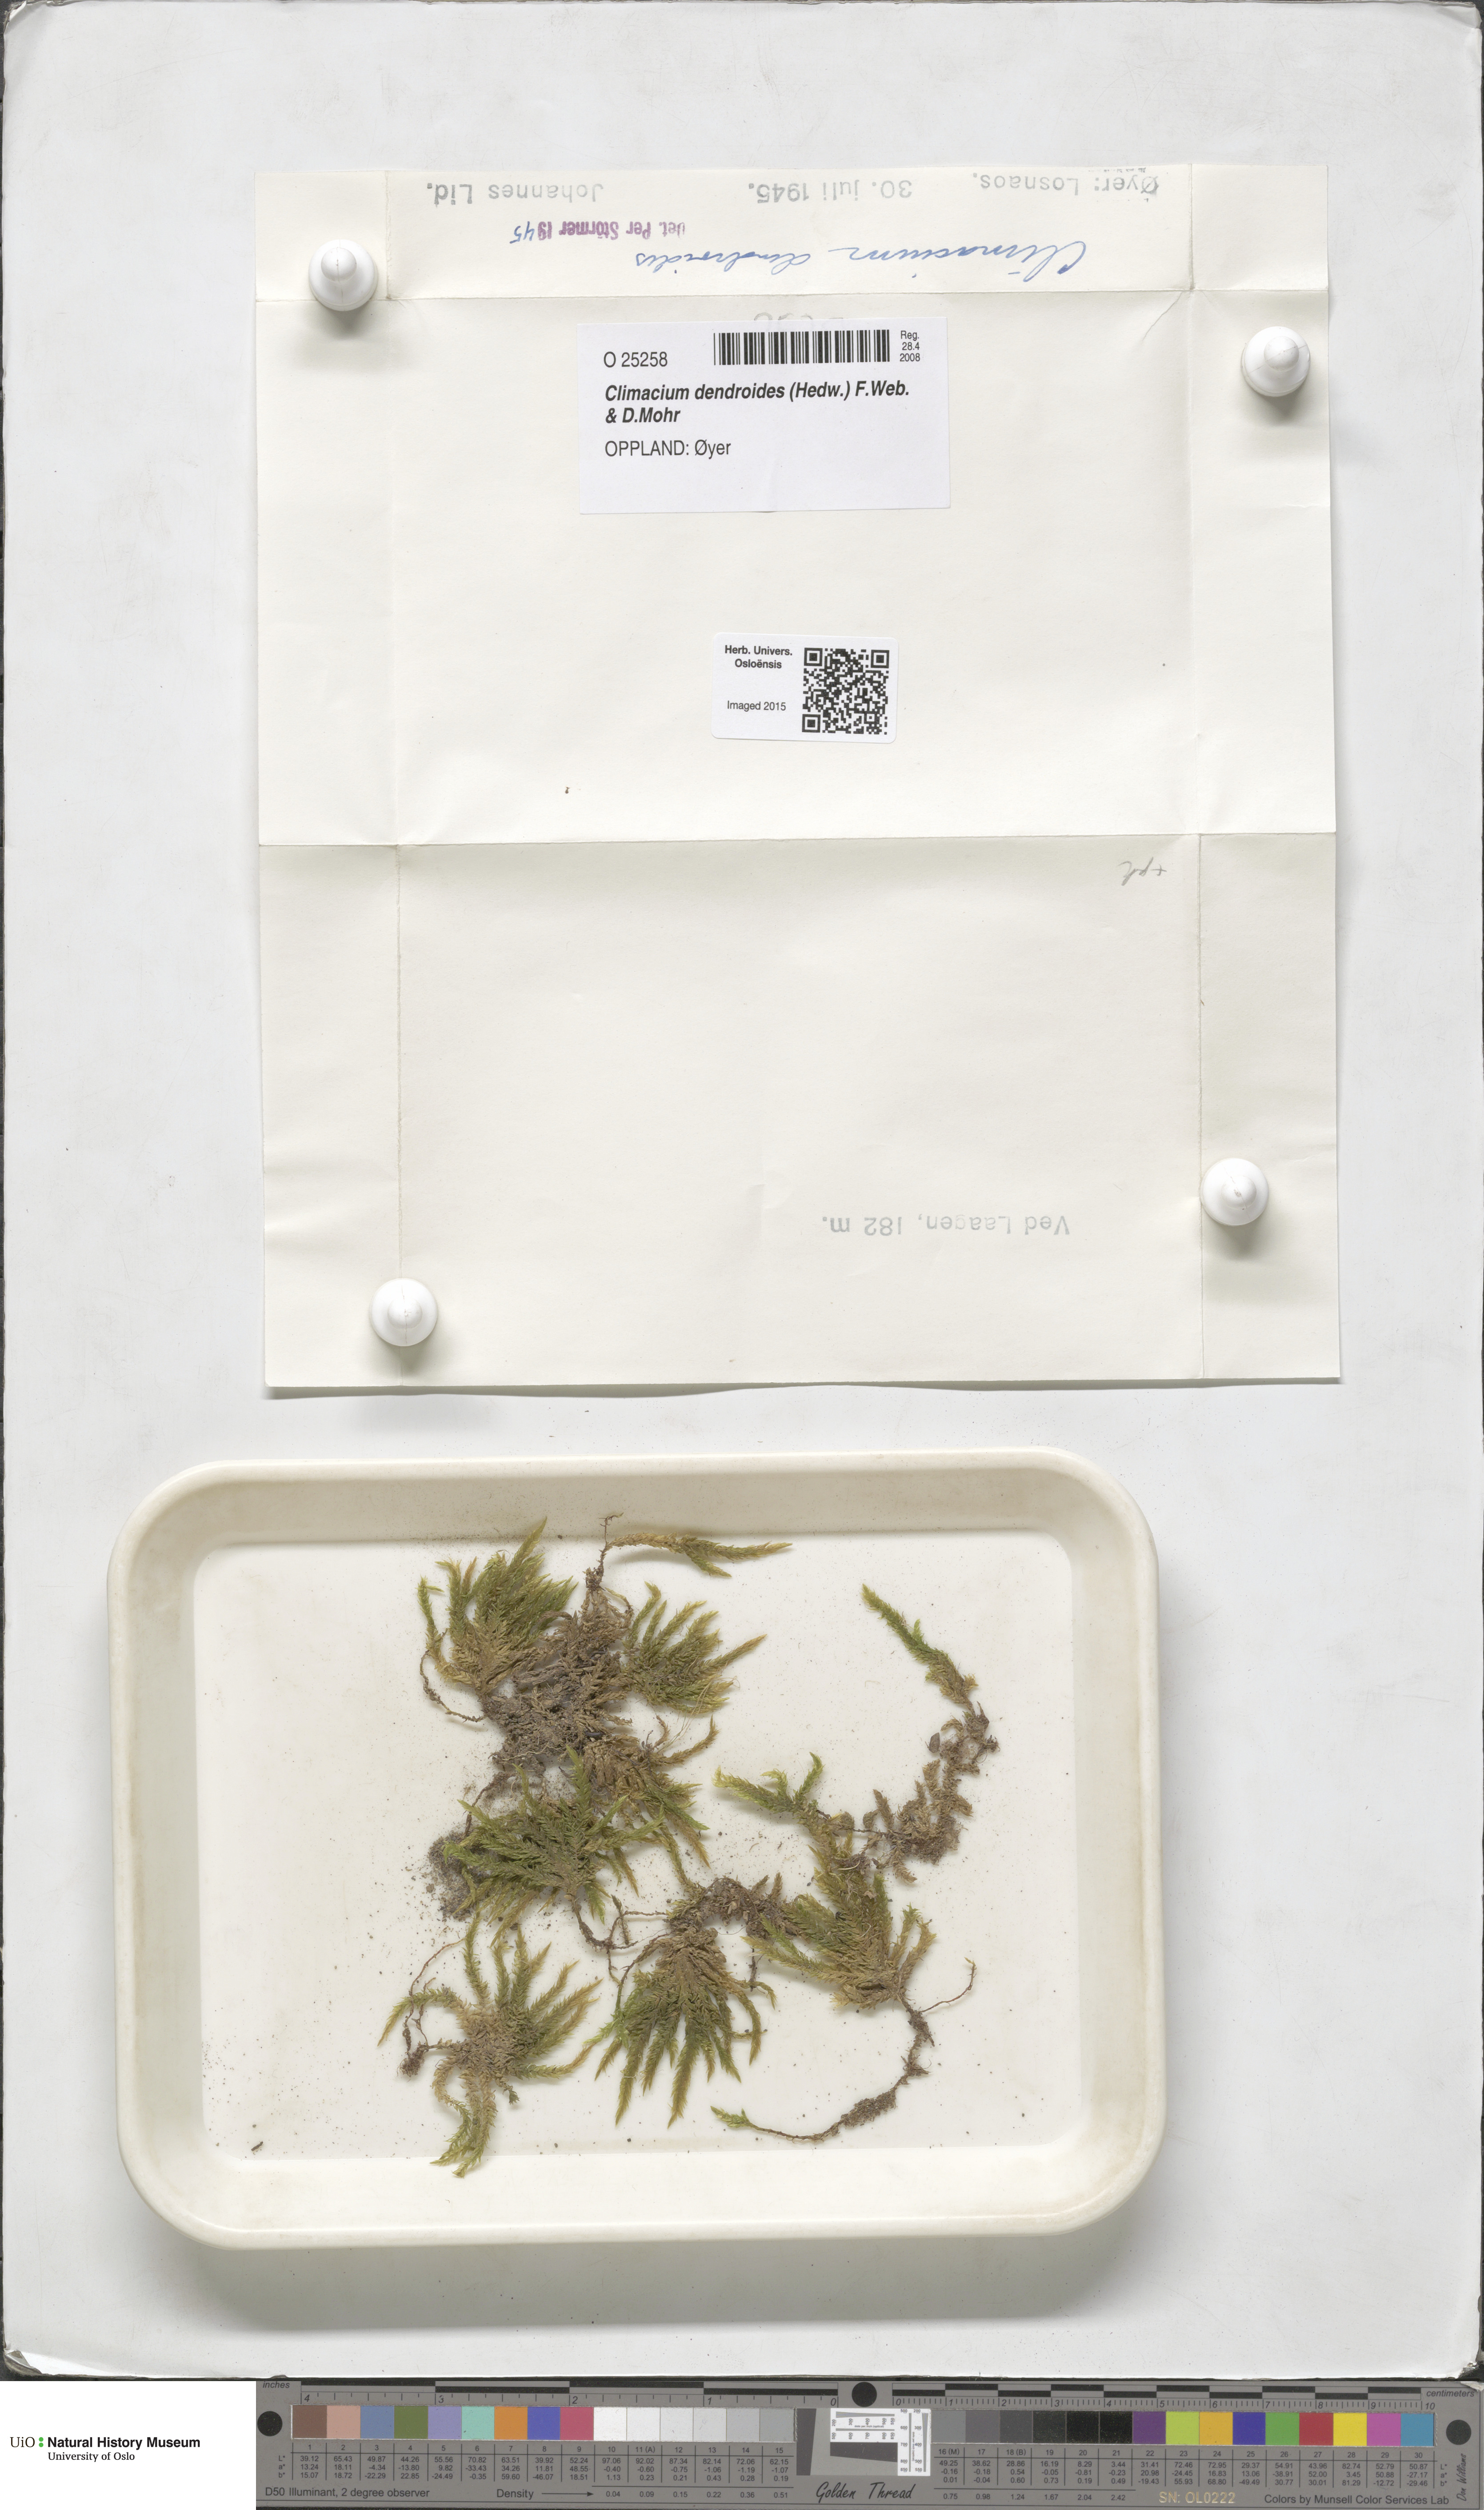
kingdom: Plantae
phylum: Bryophyta
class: Bryopsida
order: Hypnales
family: Climaciaceae
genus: Climacium
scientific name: Climacium dendroides
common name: Northern tree moss
